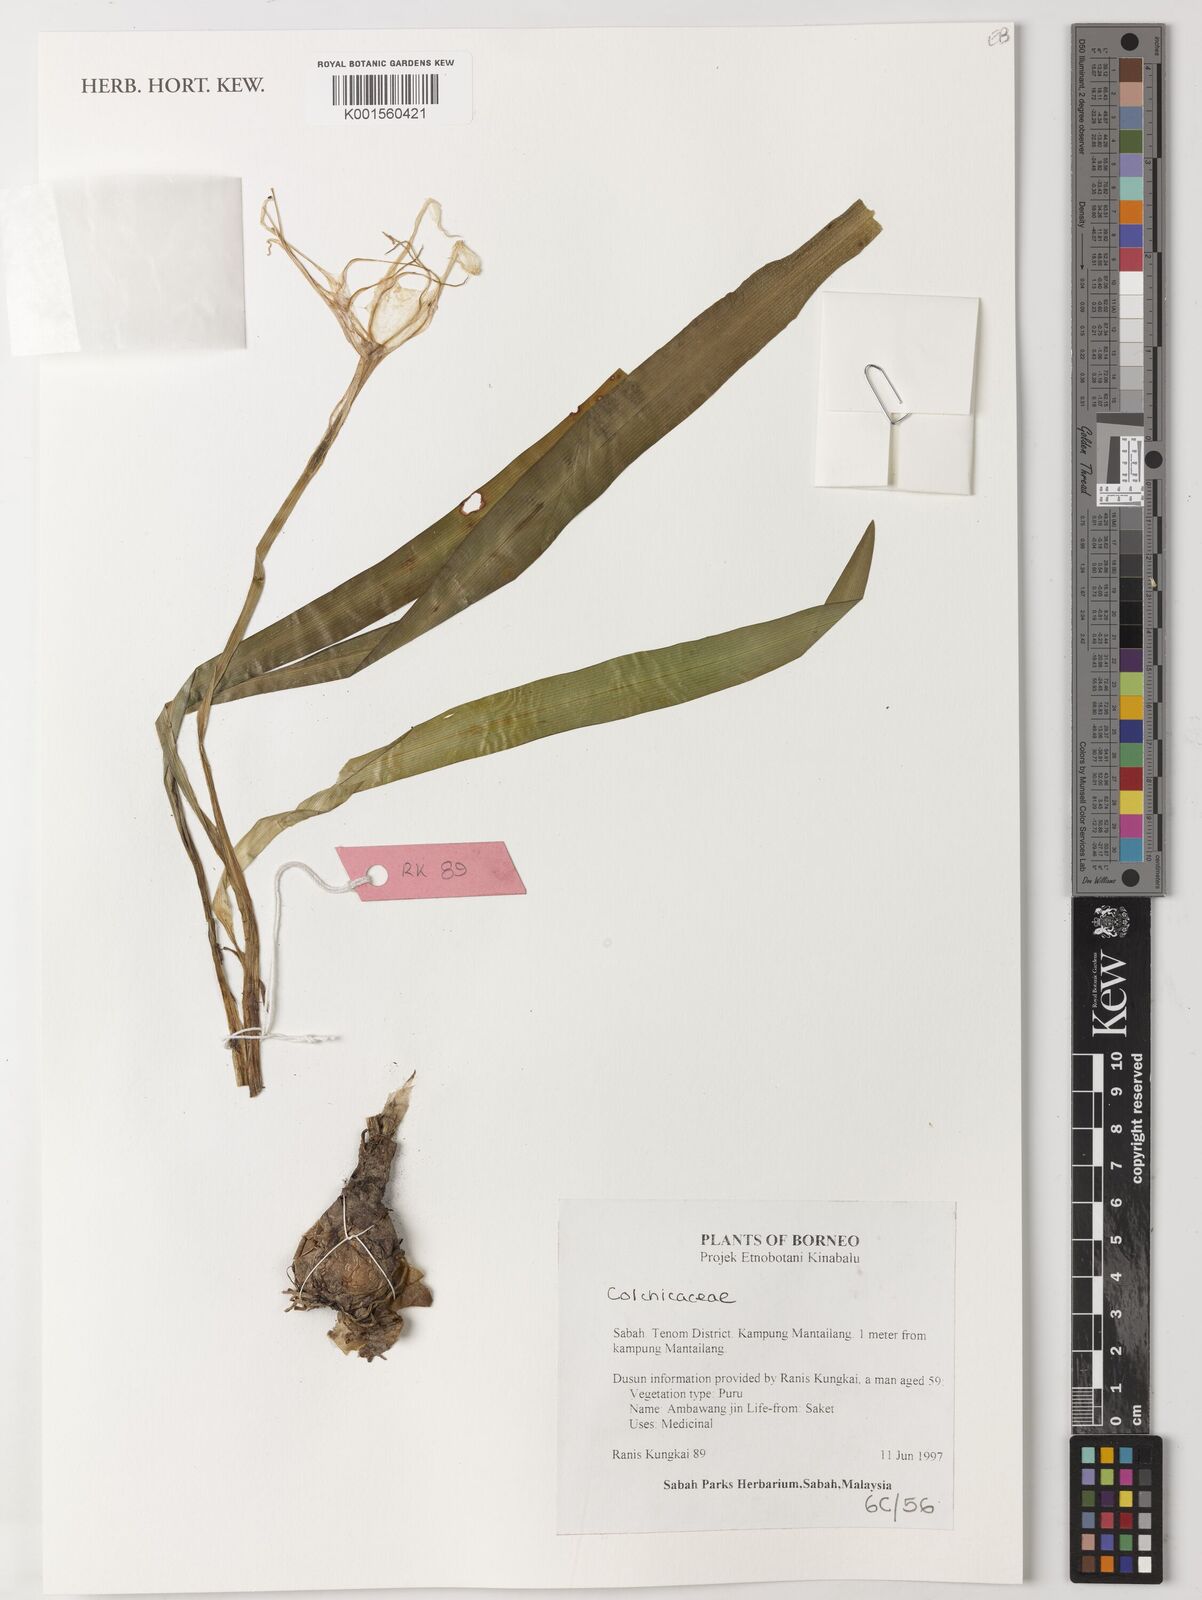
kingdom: Plantae
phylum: Tracheophyta
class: Liliopsida
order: Liliales
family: Colchicaceae
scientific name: Colchicaceae
